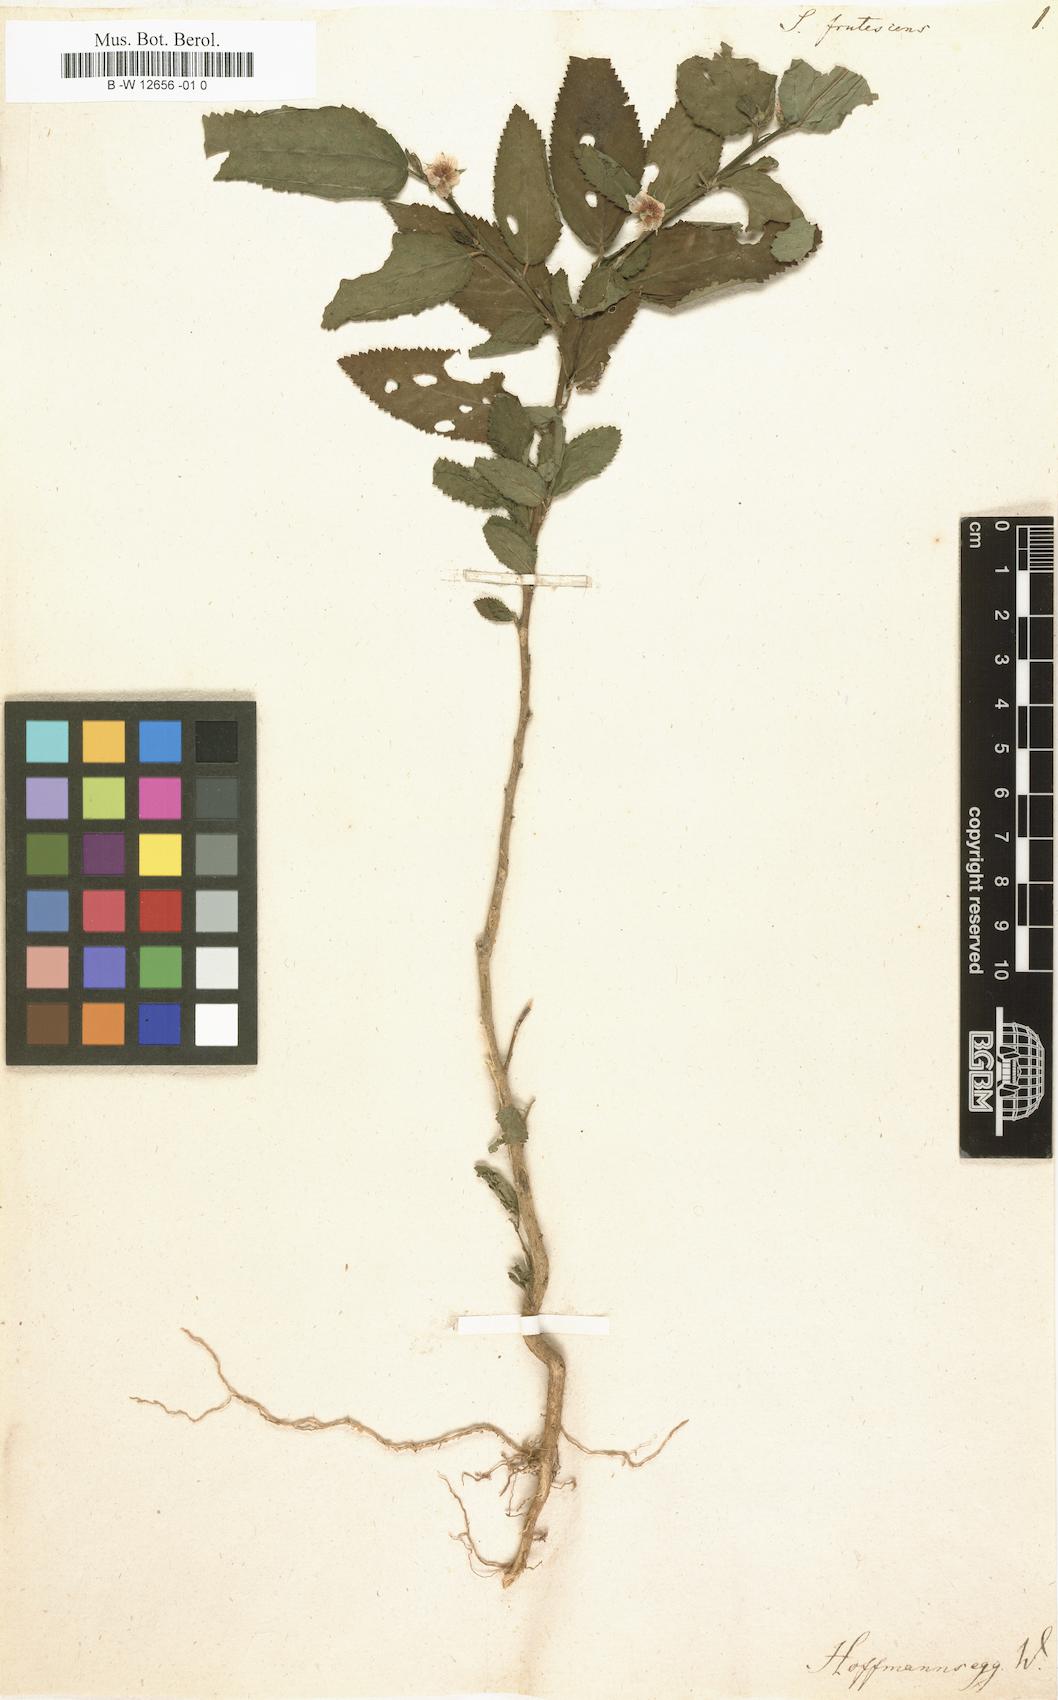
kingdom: Plantae
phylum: Tracheophyta
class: Magnoliopsida
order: Malvales
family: Malvaceae
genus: Sida
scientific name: Sida
